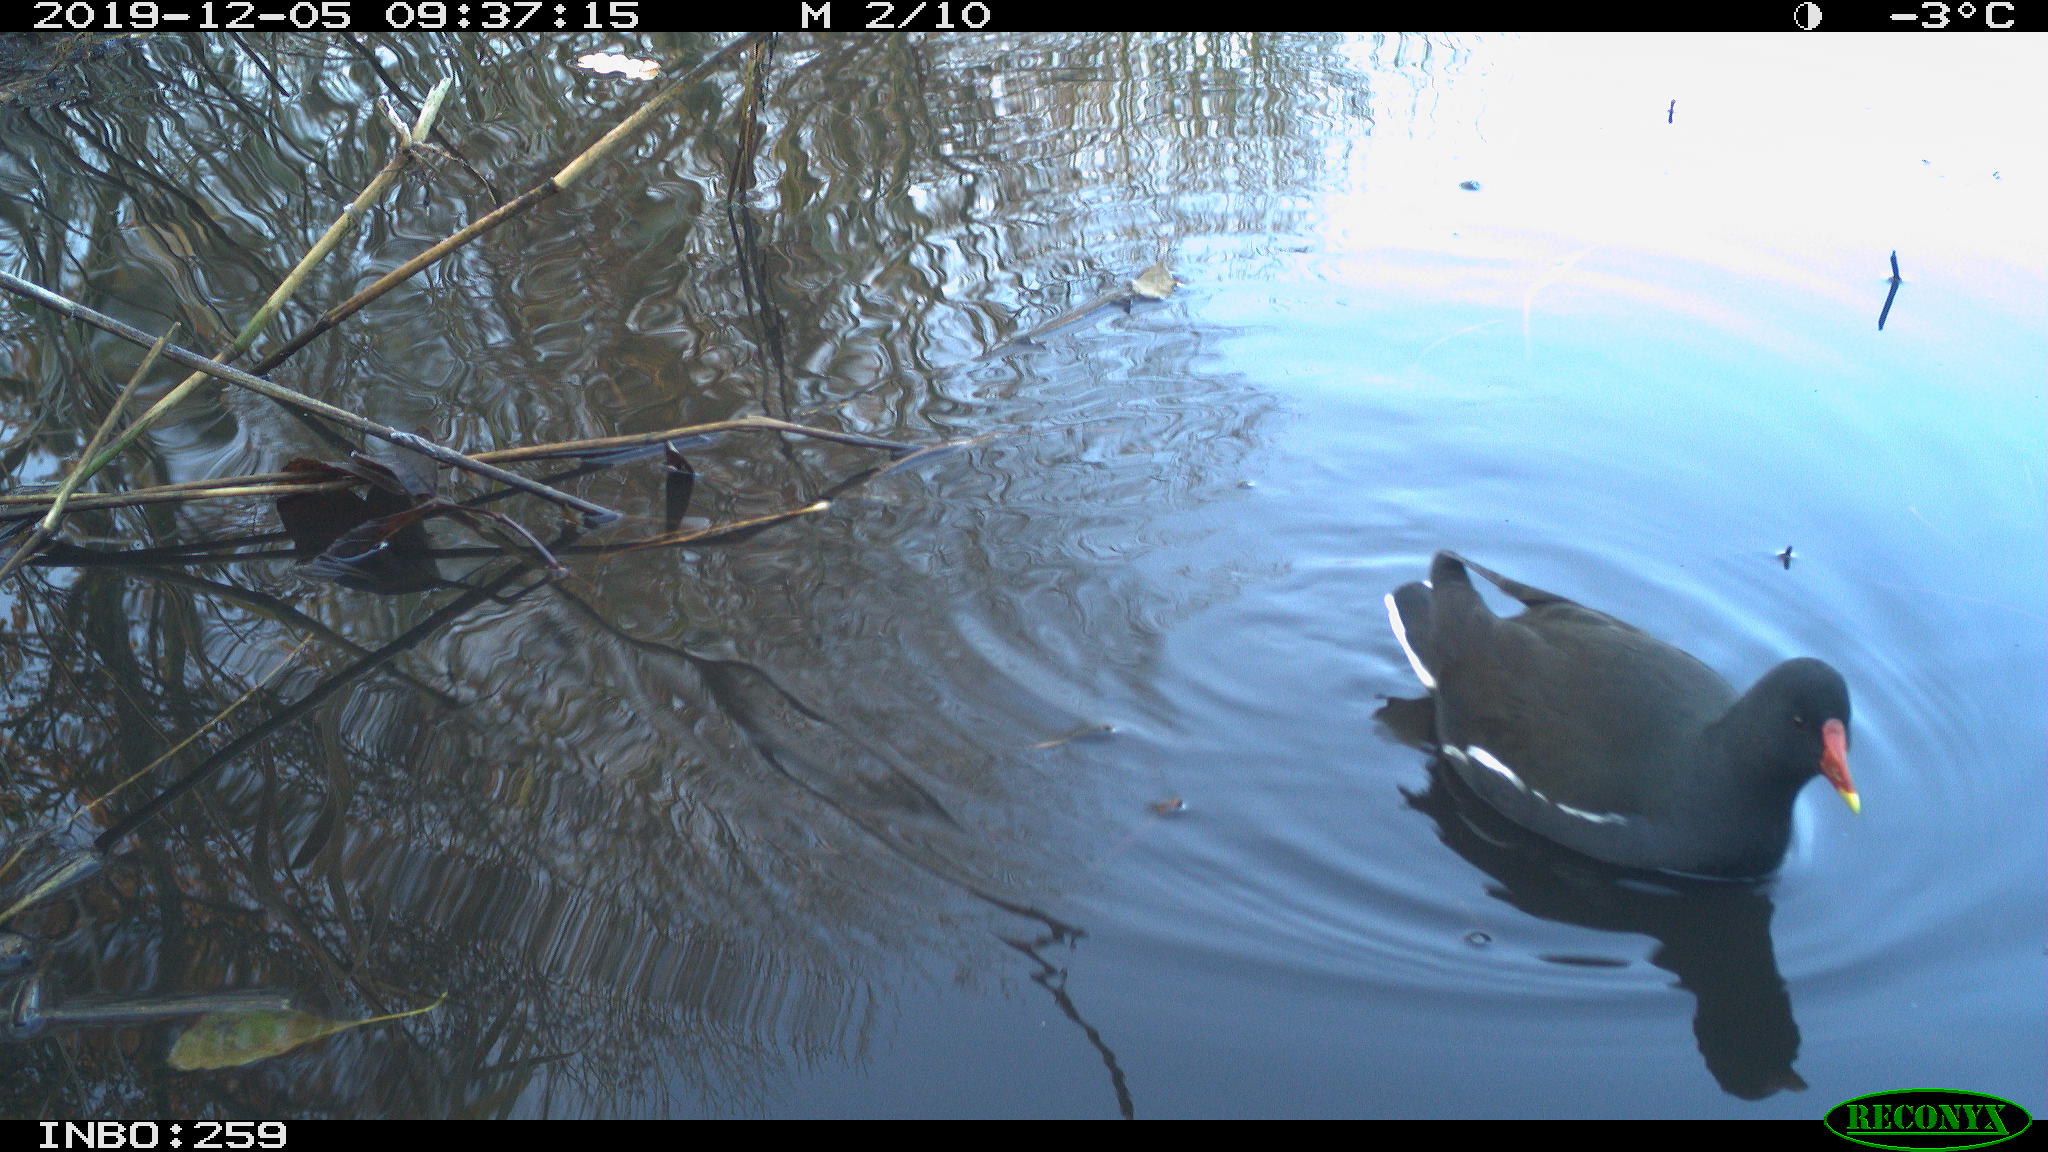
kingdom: Animalia
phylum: Chordata
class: Aves
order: Gruiformes
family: Rallidae
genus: Gallinula
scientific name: Gallinula chloropus
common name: Common moorhen
